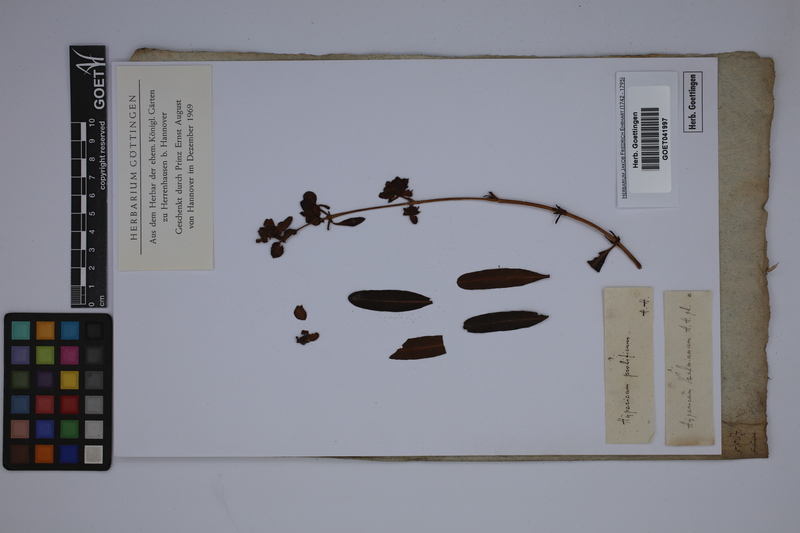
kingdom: Plantae
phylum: Tracheophyta
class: Magnoliopsida
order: Malpighiales
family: Hypericaceae
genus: Hypericum
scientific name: Hypericum prolificum
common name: Shrubby st. john's-wort
